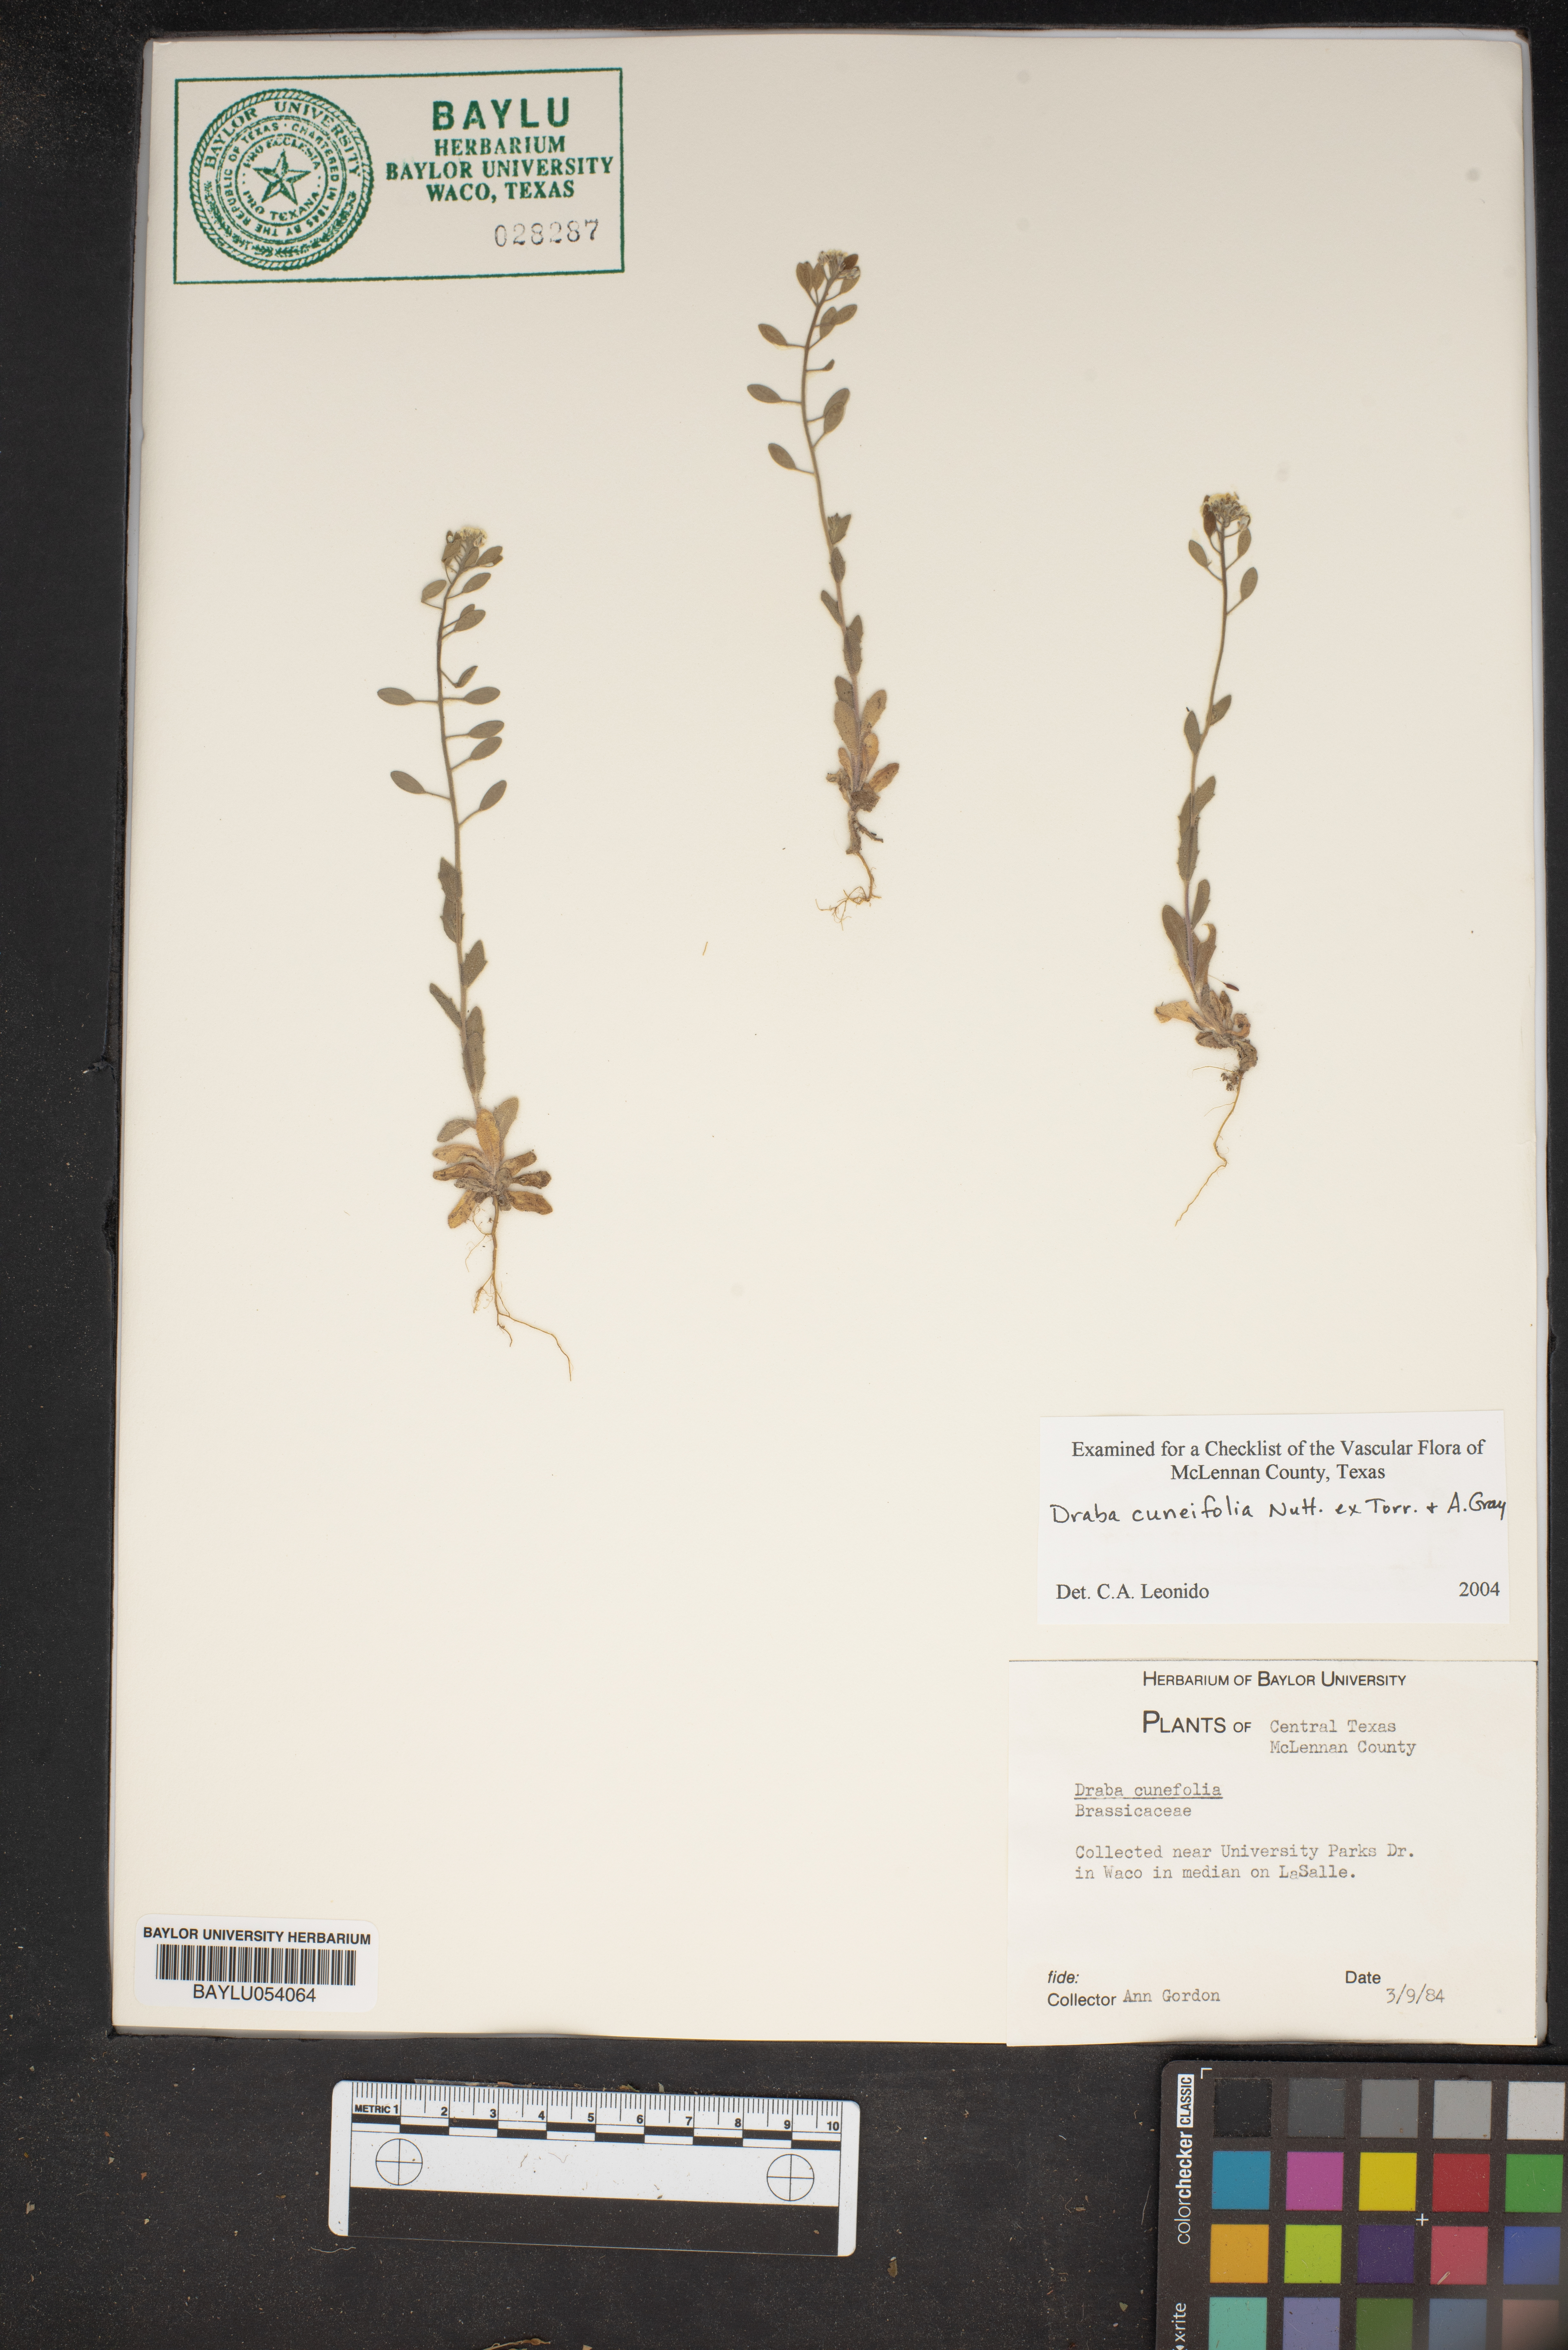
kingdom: Plantae
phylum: Tracheophyta
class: Magnoliopsida
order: Brassicales
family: Brassicaceae
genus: Tomostima
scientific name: Tomostima cuneifolia
